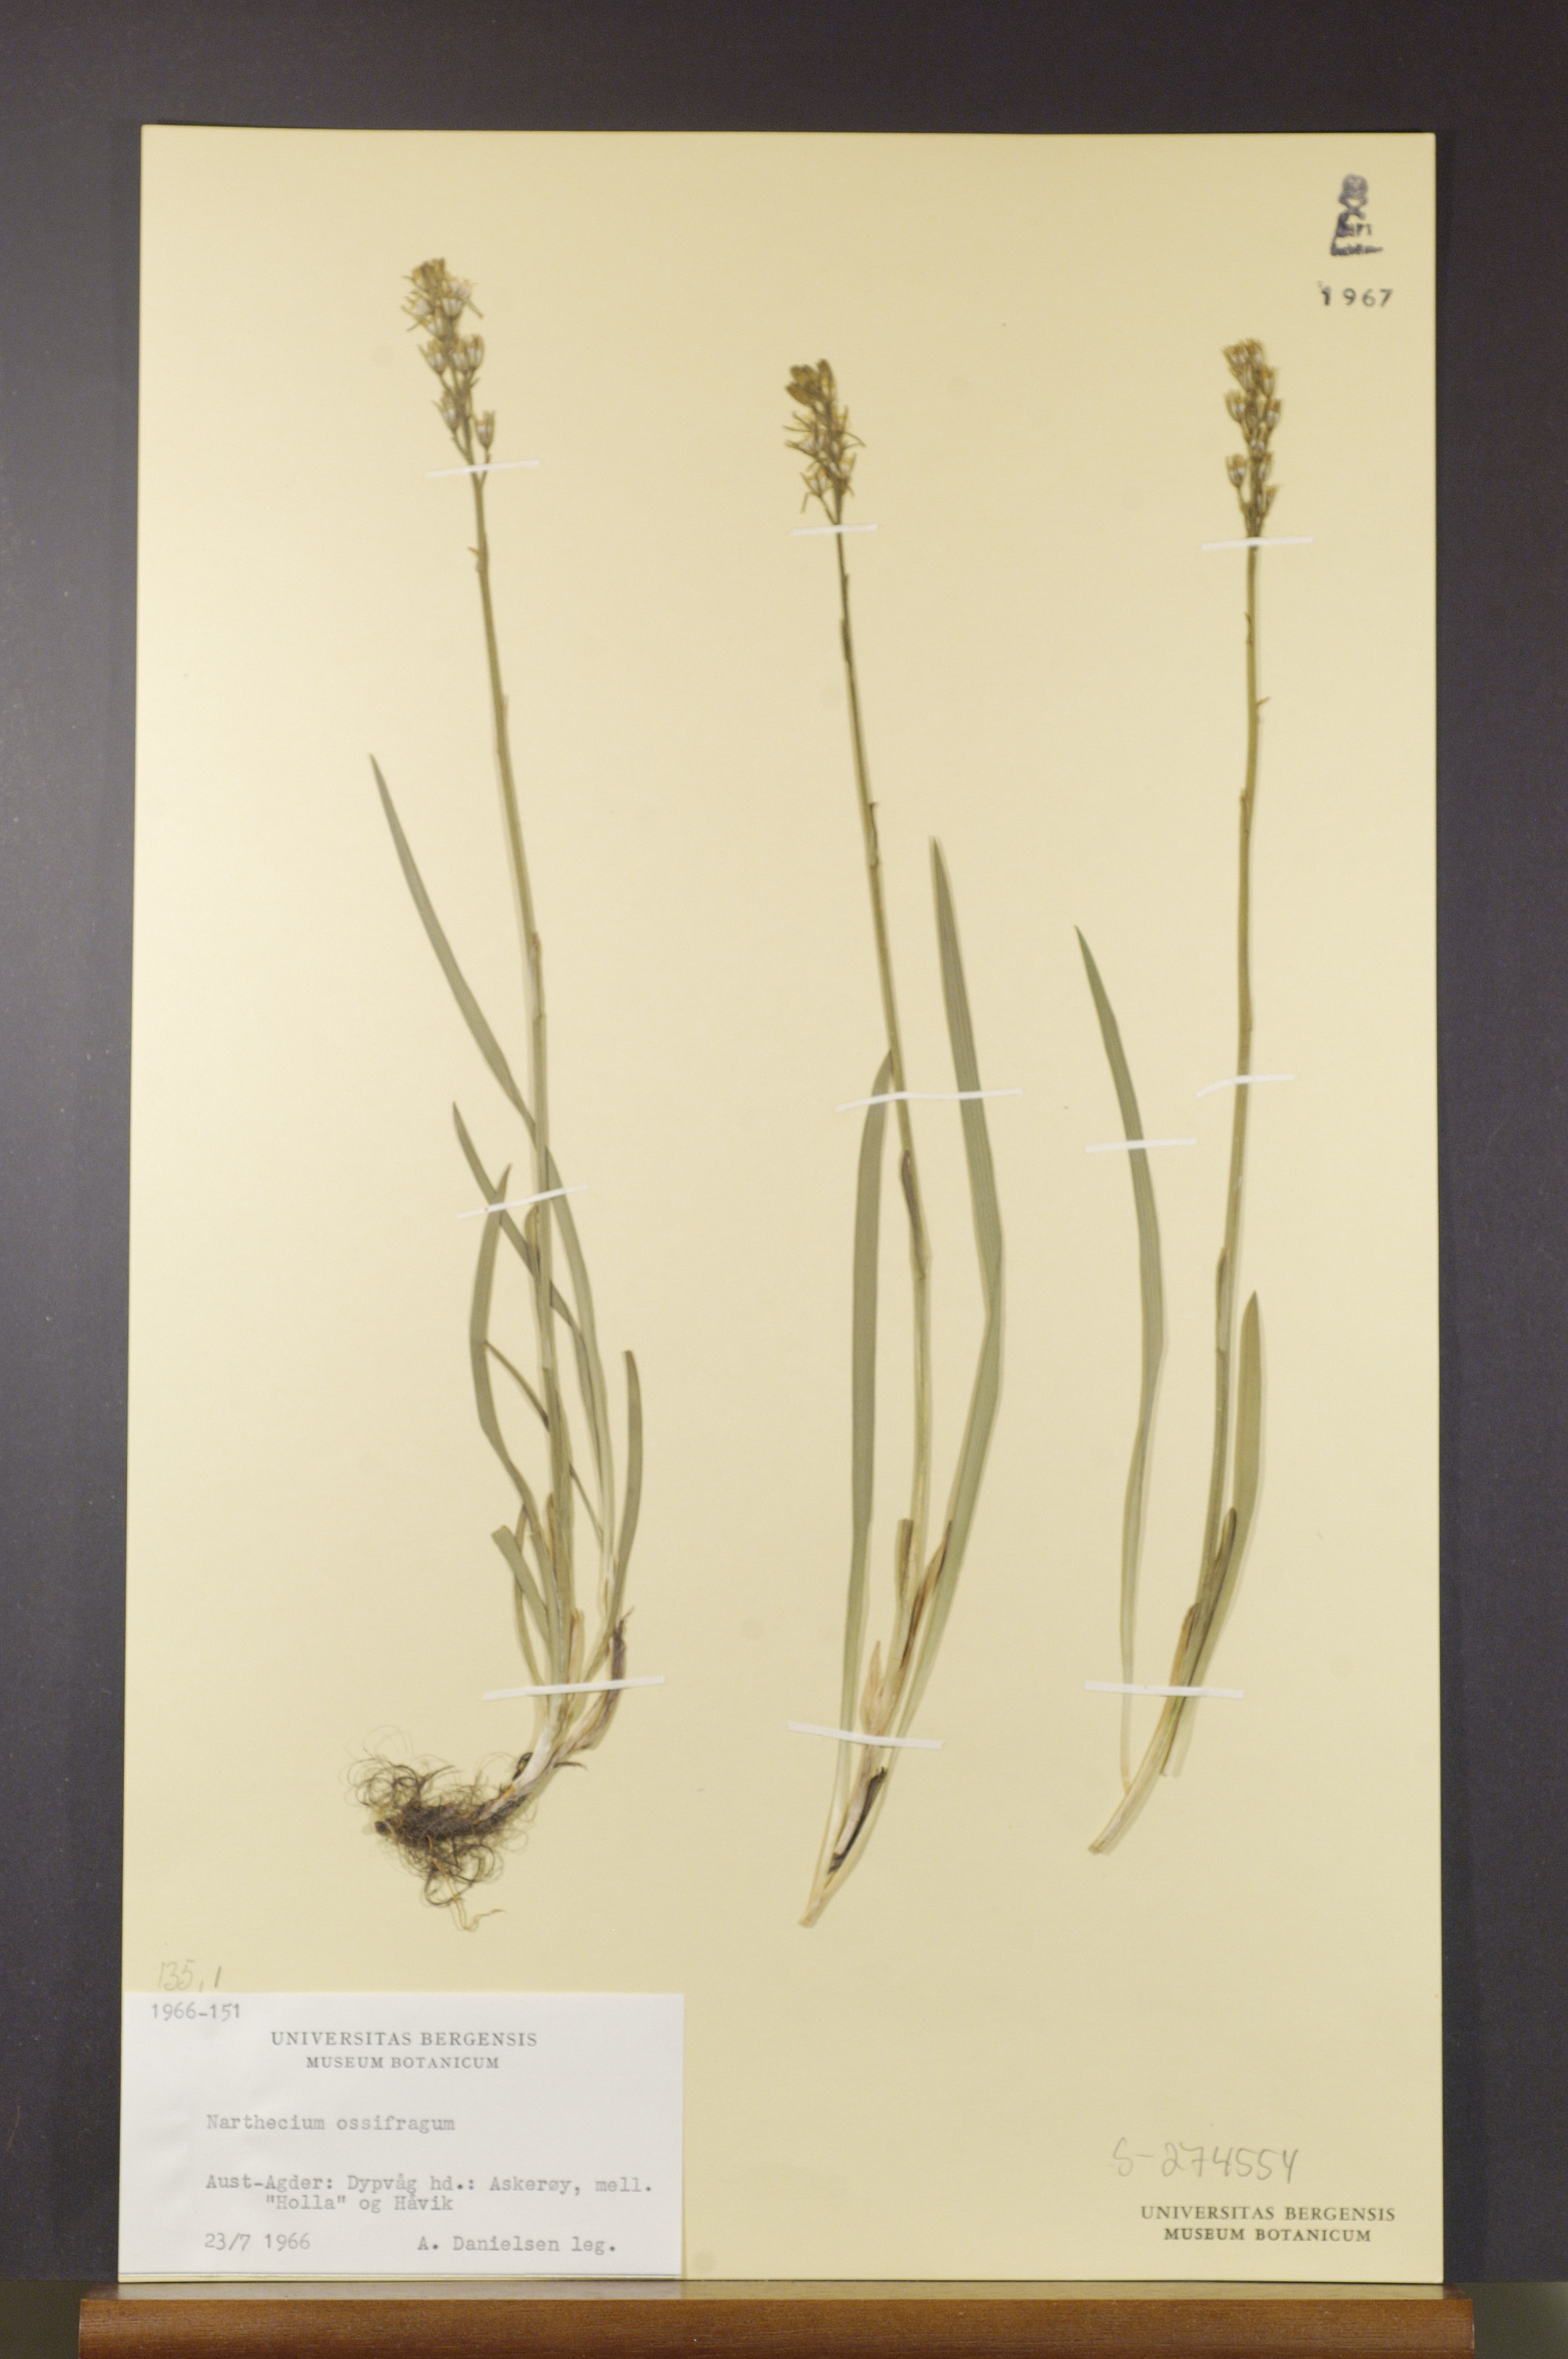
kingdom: Plantae
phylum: Tracheophyta
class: Liliopsida
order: Dioscoreales
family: Nartheciaceae
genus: Narthecium
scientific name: Narthecium ossifragum
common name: Bog asphodel
